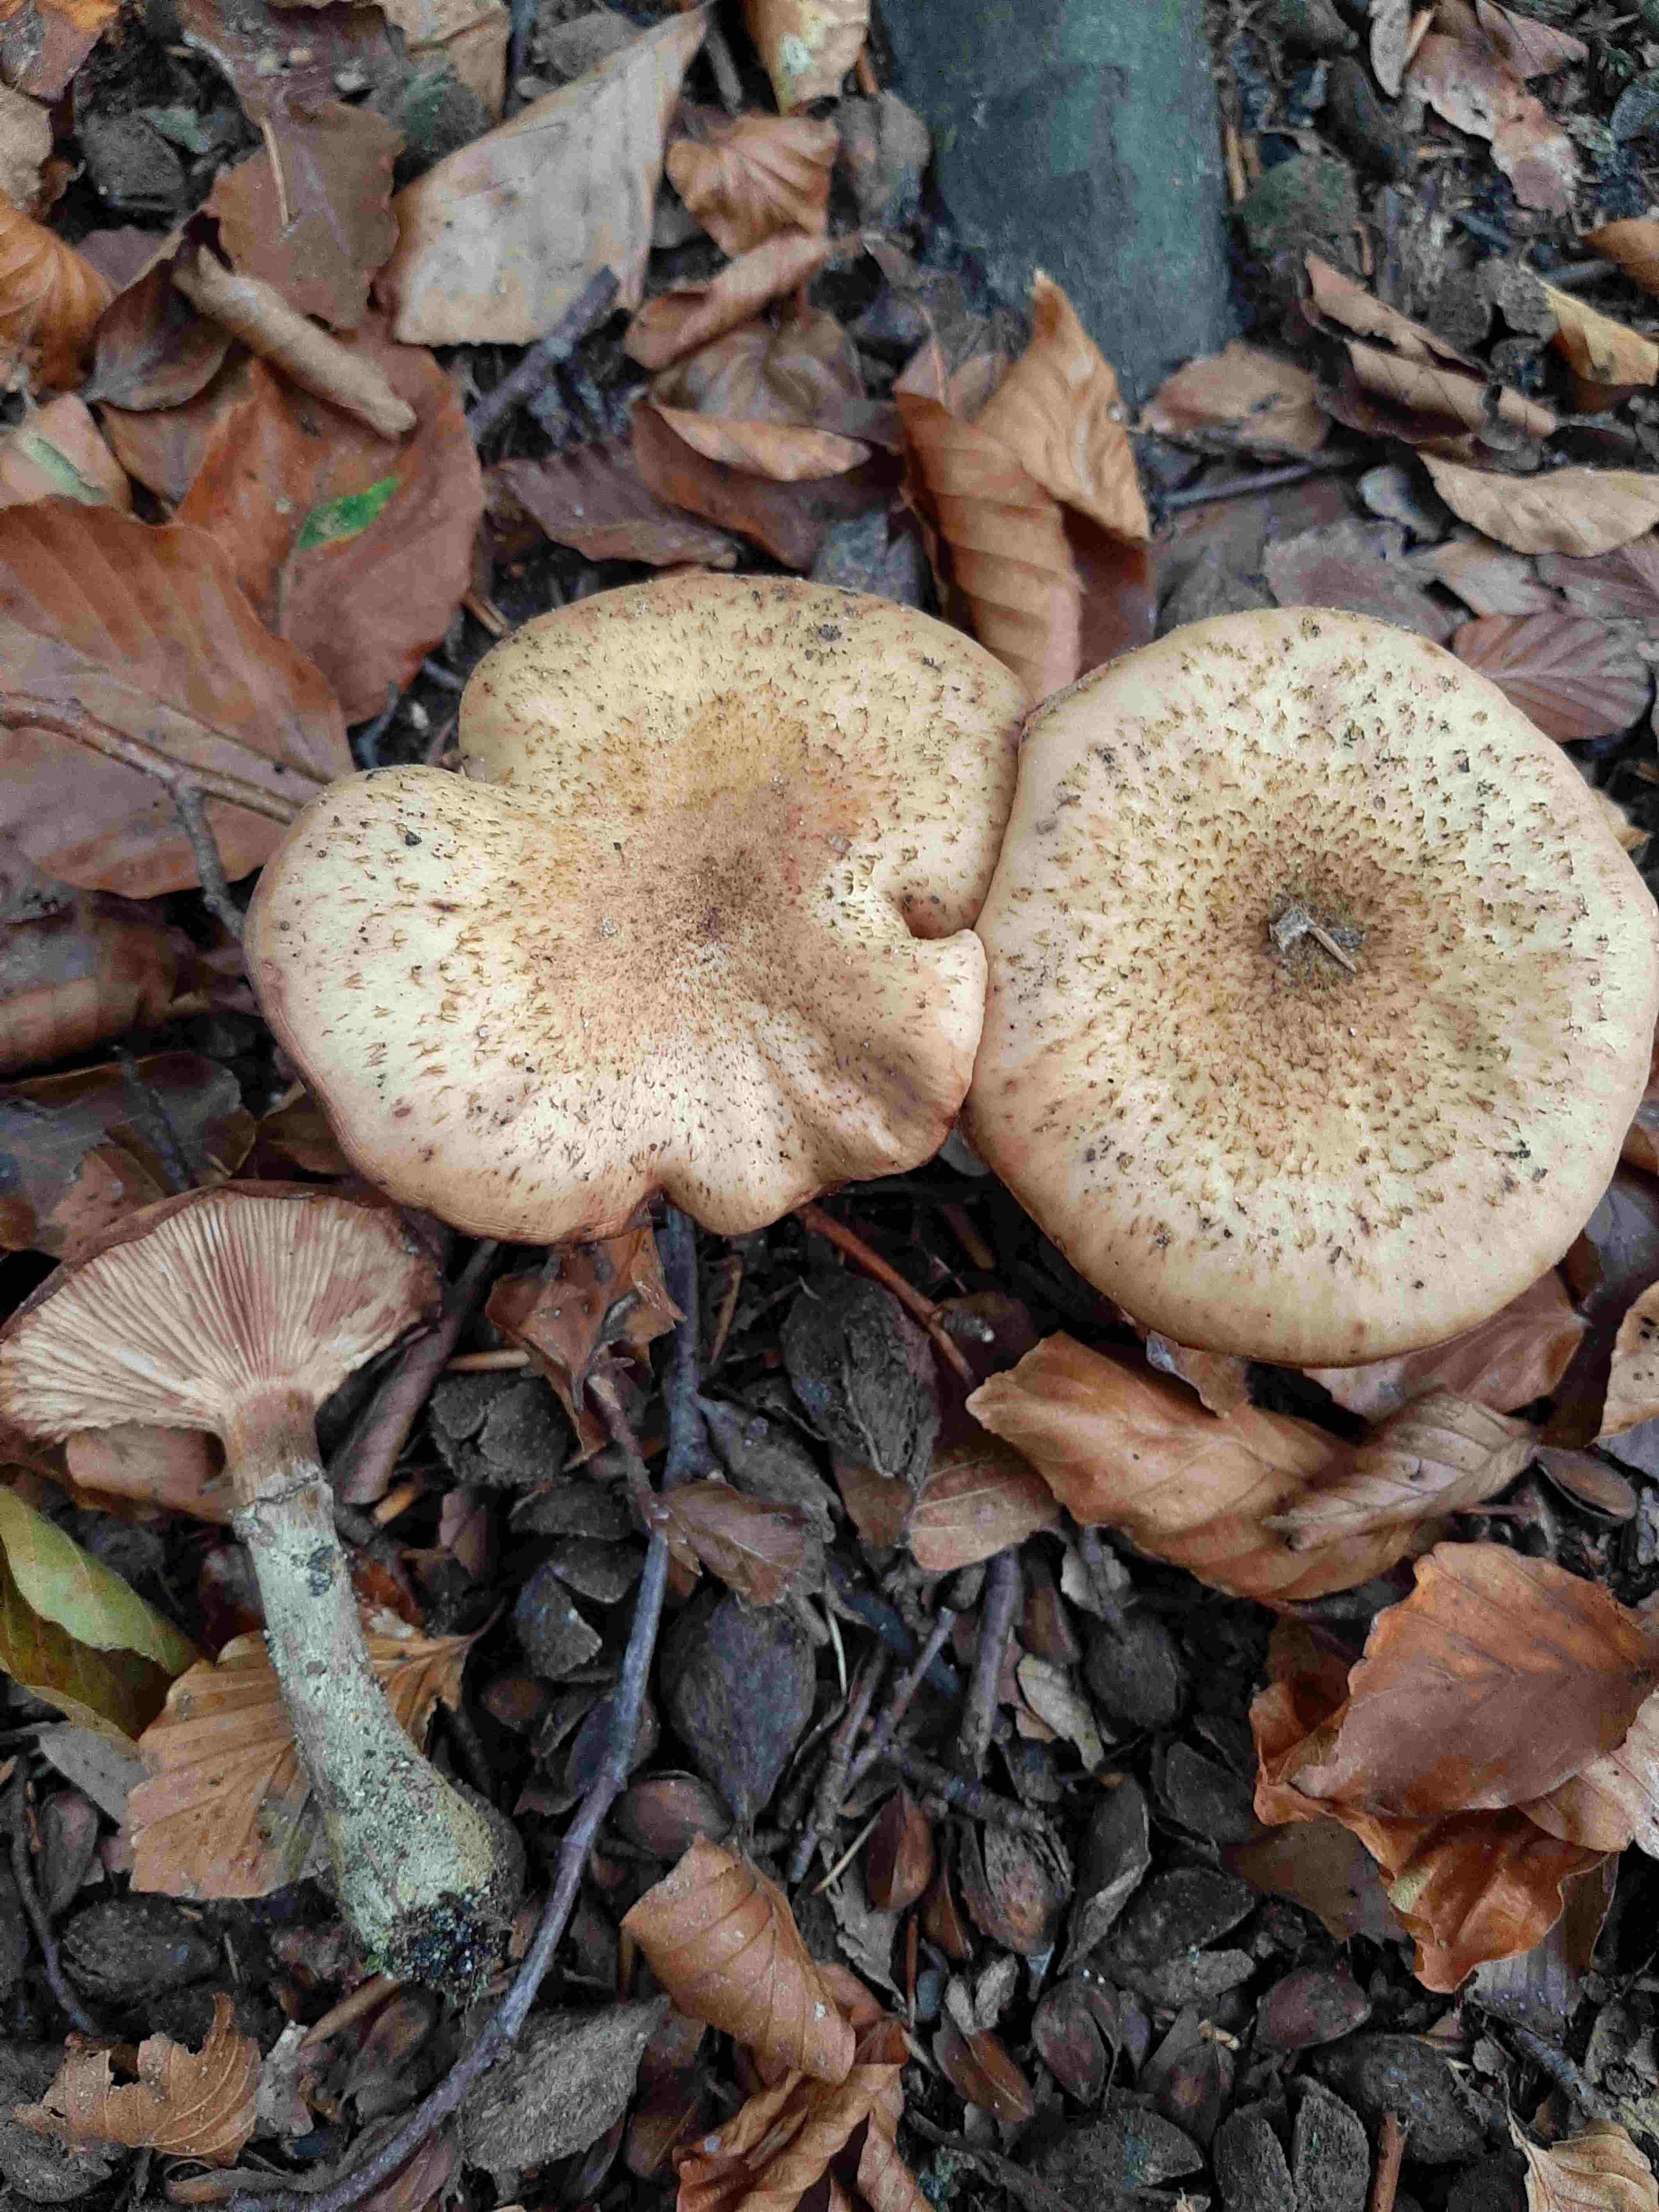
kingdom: Fungi
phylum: Basidiomycota
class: Agaricomycetes
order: Agaricales
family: Physalacriaceae
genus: Armillaria
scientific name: Armillaria lutea
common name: køllestokket honningsvamp
